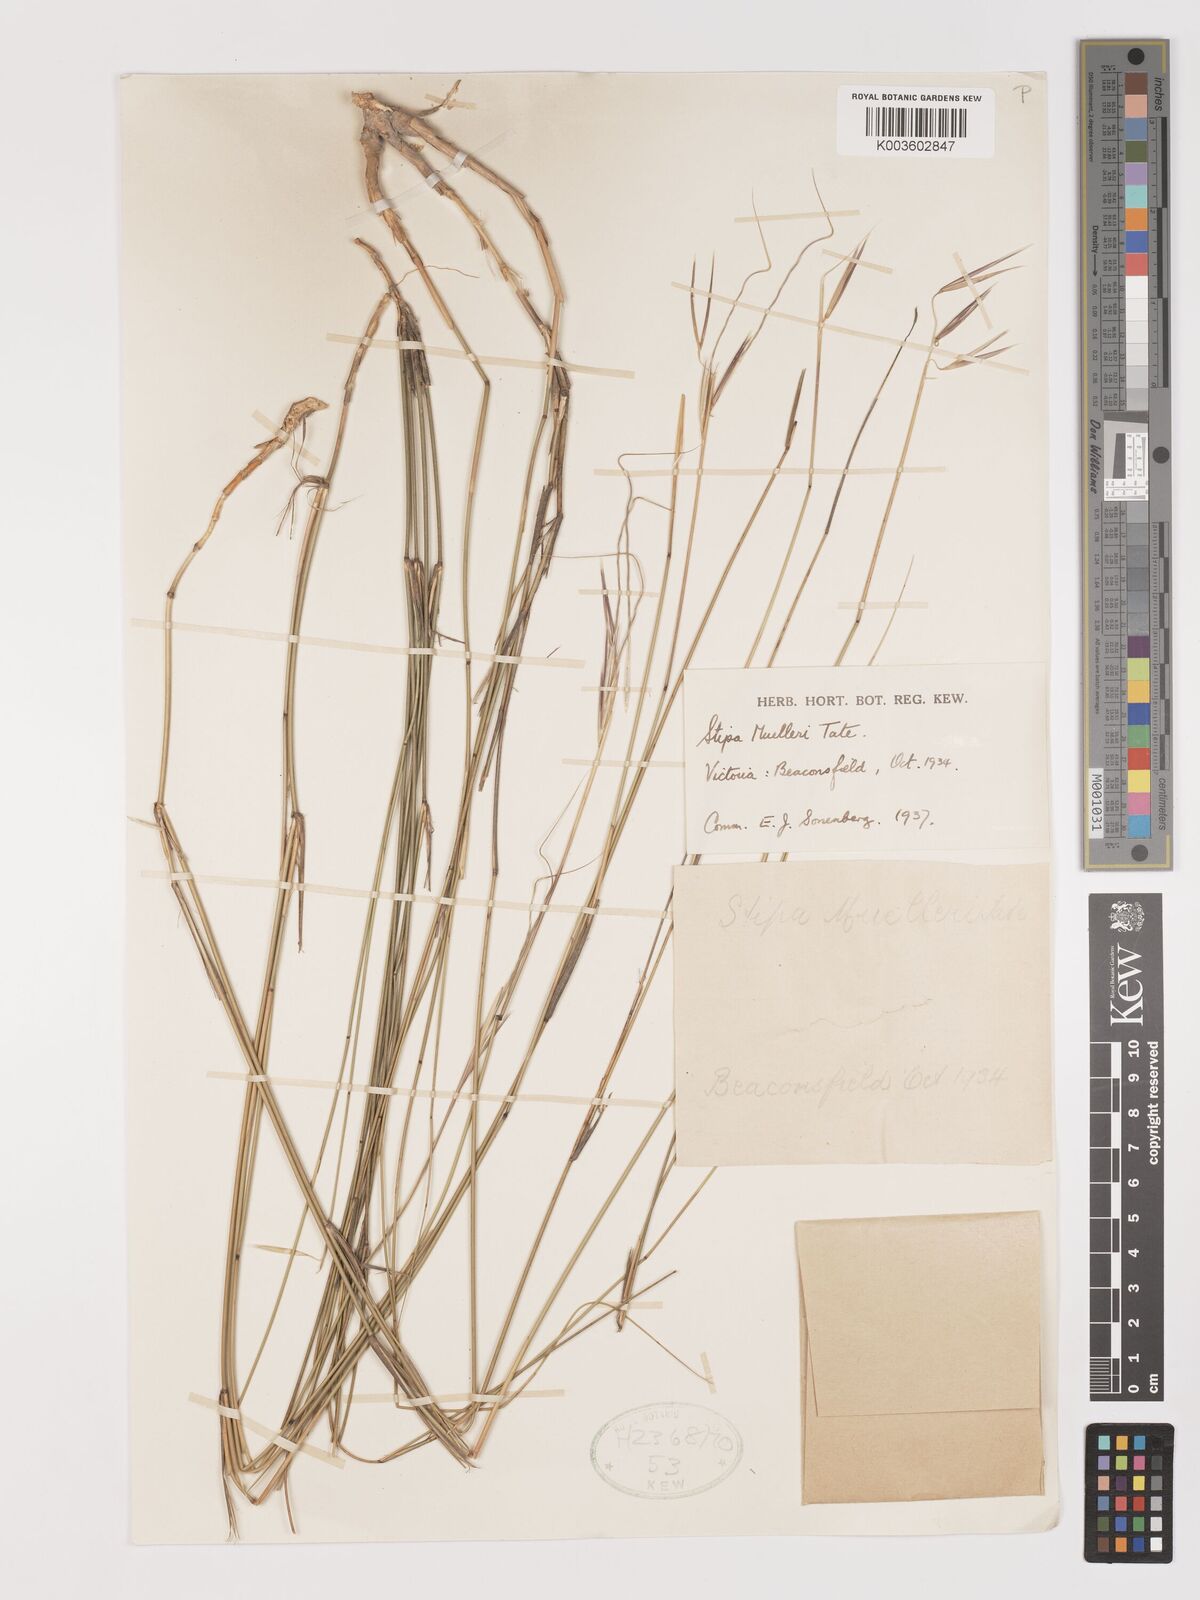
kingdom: Plantae
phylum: Tracheophyta
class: Liliopsida
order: Poales
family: Poaceae
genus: Austrostipa
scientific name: Austrostipa muelleri
